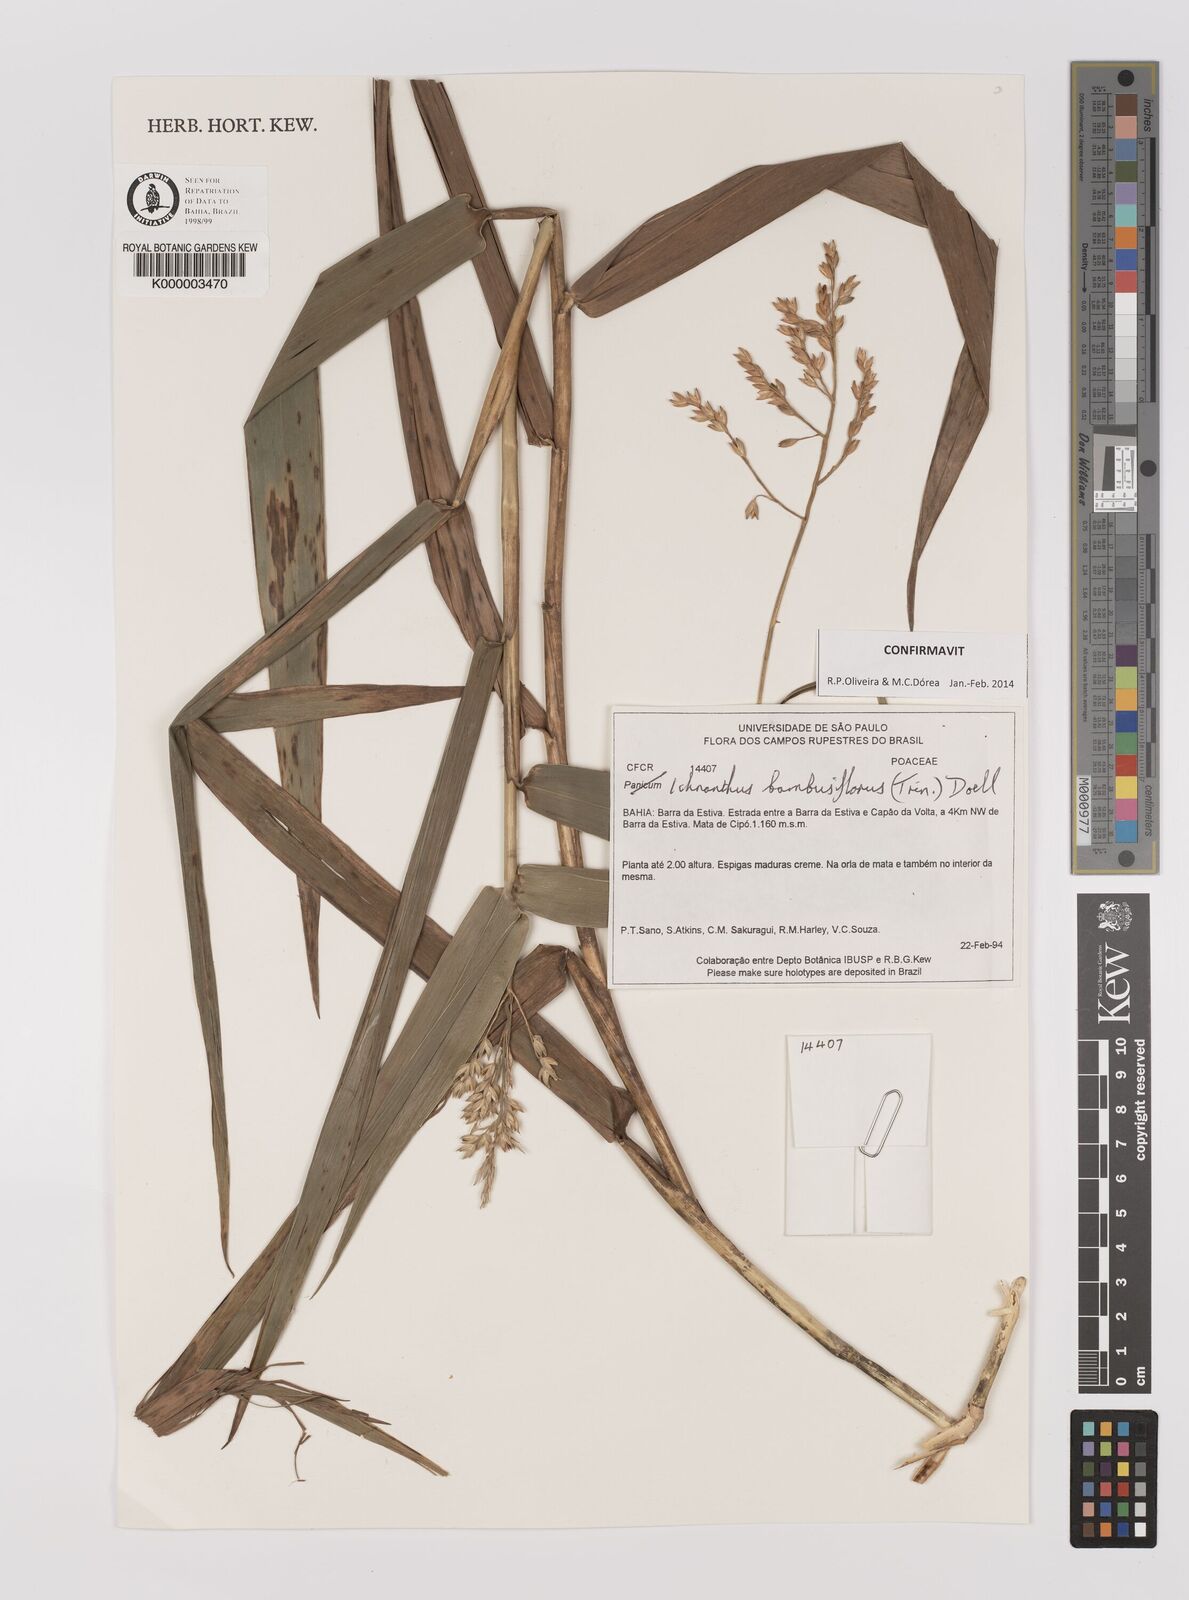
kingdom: Plantae
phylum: Tracheophyta
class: Liliopsida
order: Poales
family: Poaceae
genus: Ichnanthus
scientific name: Ichnanthus
